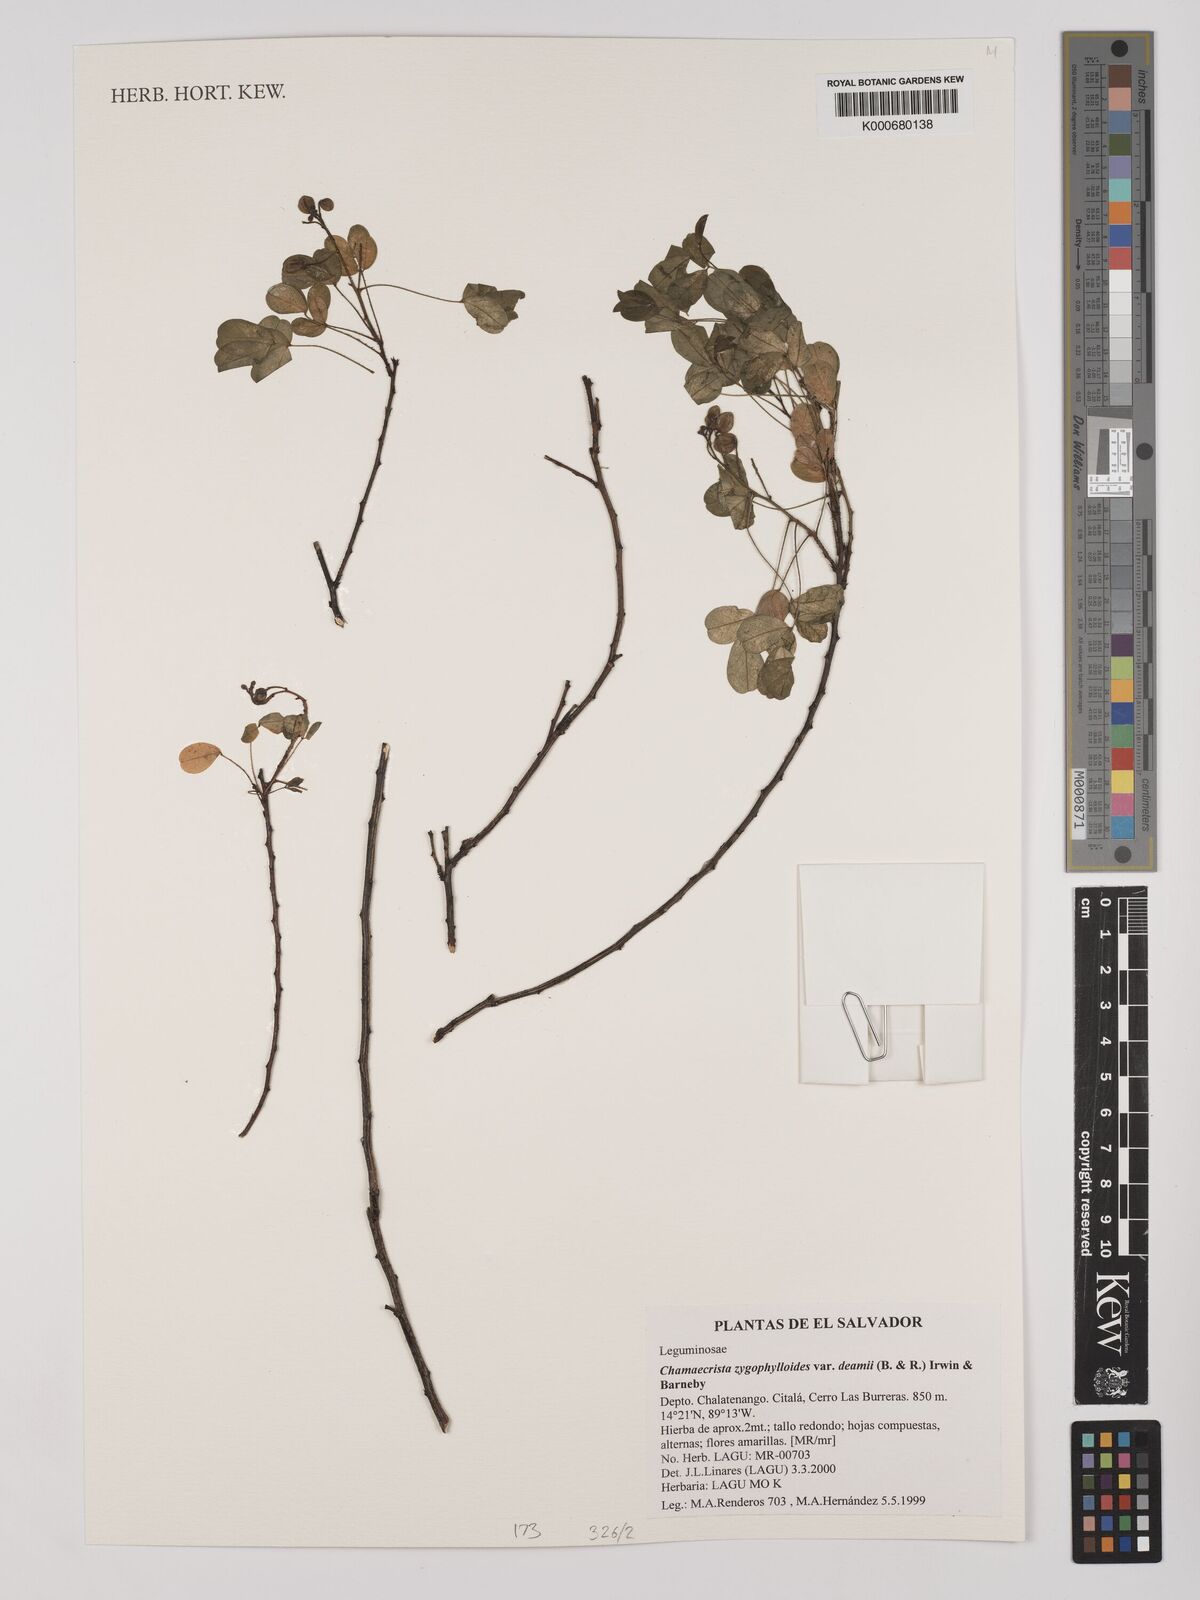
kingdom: Plantae
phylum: Tracheophyta
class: Magnoliopsida
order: Fabales
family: Fabaceae
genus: Chamaecrista
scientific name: Chamaecrista zygophylloides
